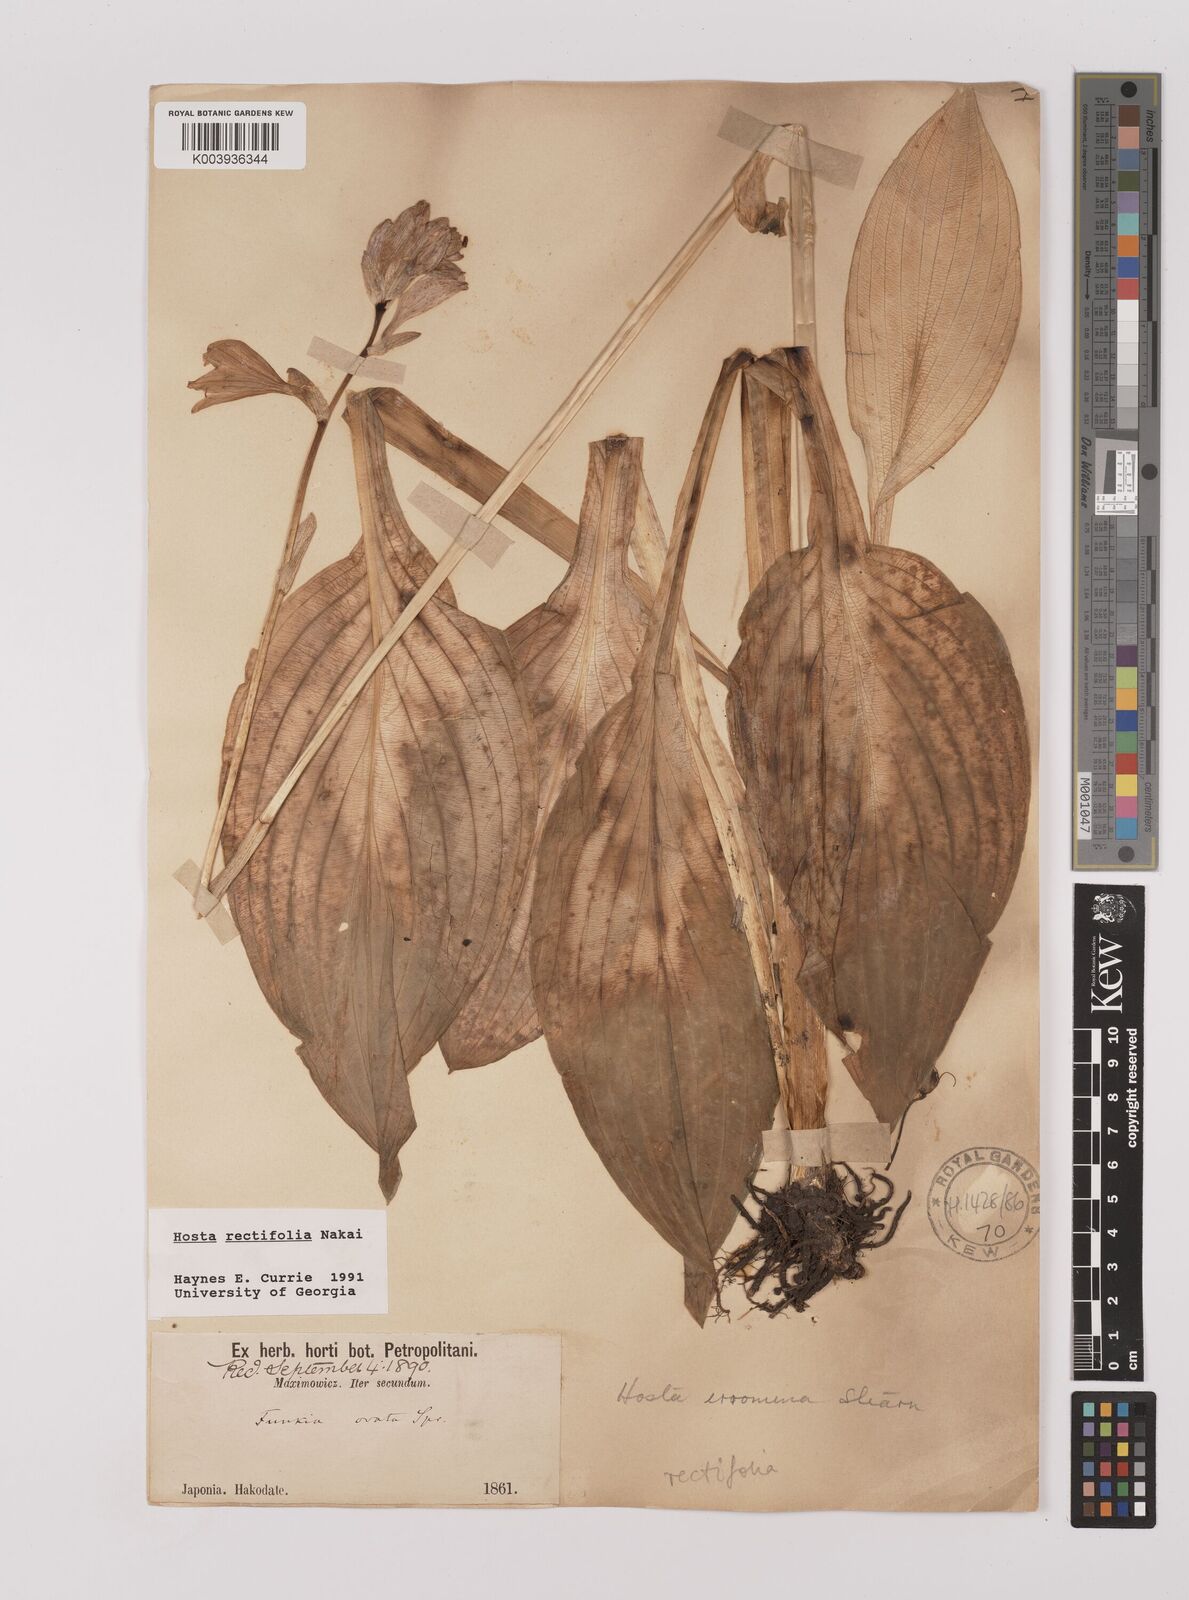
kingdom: Plantae
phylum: Tracheophyta
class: Liliopsida
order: Asparagales
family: Asparagaceae
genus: Hosta
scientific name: Hosta sieboldii
